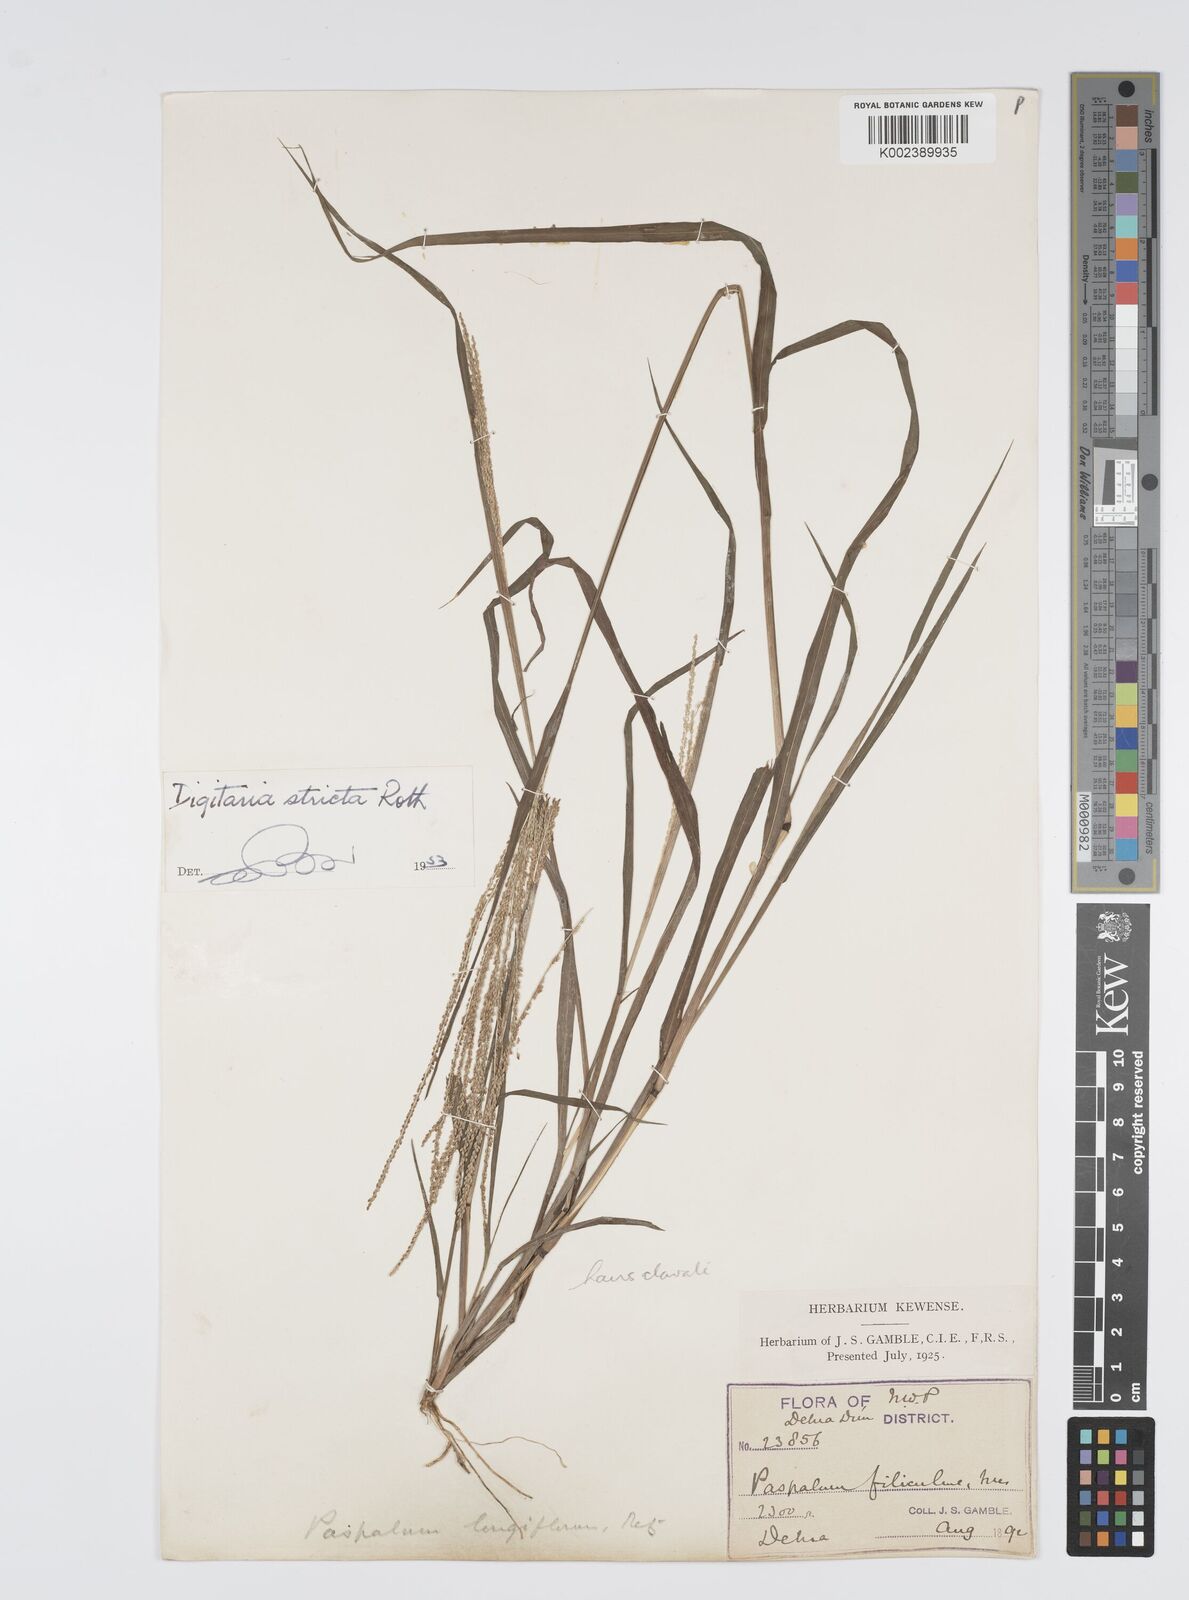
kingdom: Plantae
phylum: Tracheophyta
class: Liliopsida
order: Poales
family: Poaceae
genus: Digitaria
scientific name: Digitaria stricta
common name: Crabgrass
